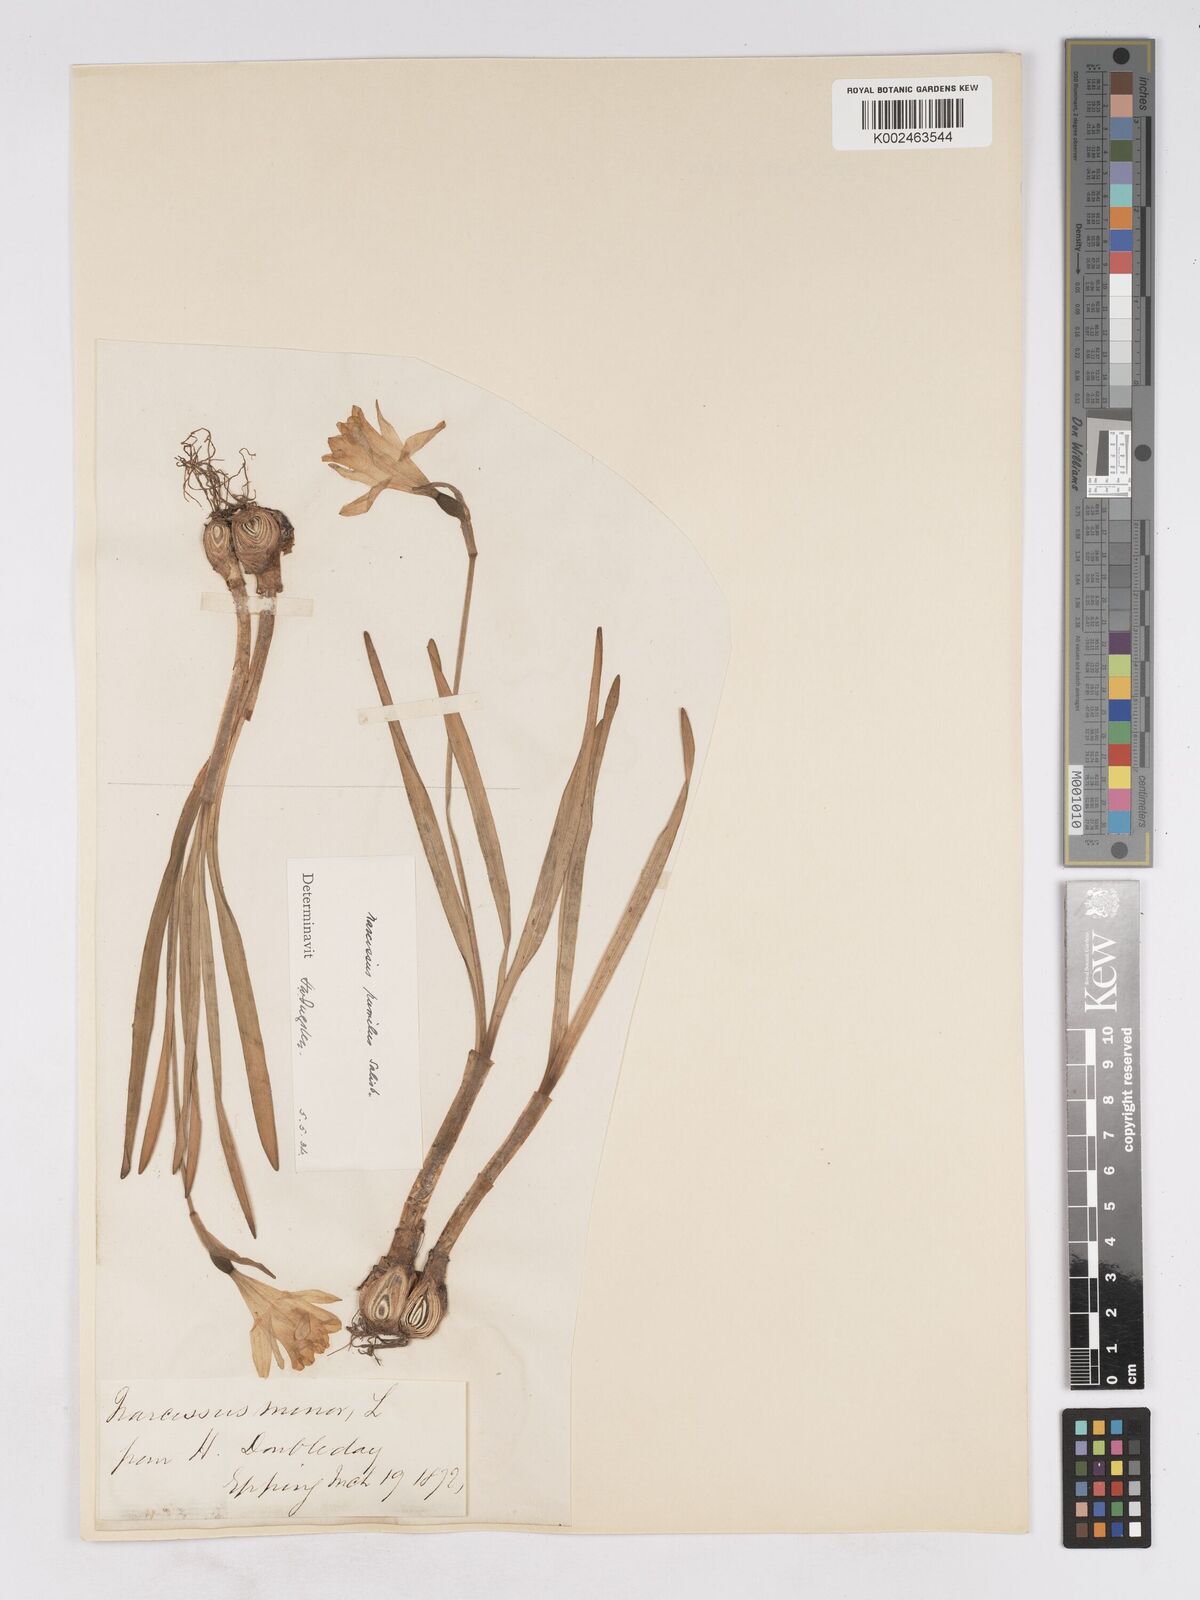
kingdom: Plantae
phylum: Tracheophyta
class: Liliopsida
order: Asparagales
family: Amaryllidaceae
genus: Narcissus
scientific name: Narcissus minor
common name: Lesser daffodil
